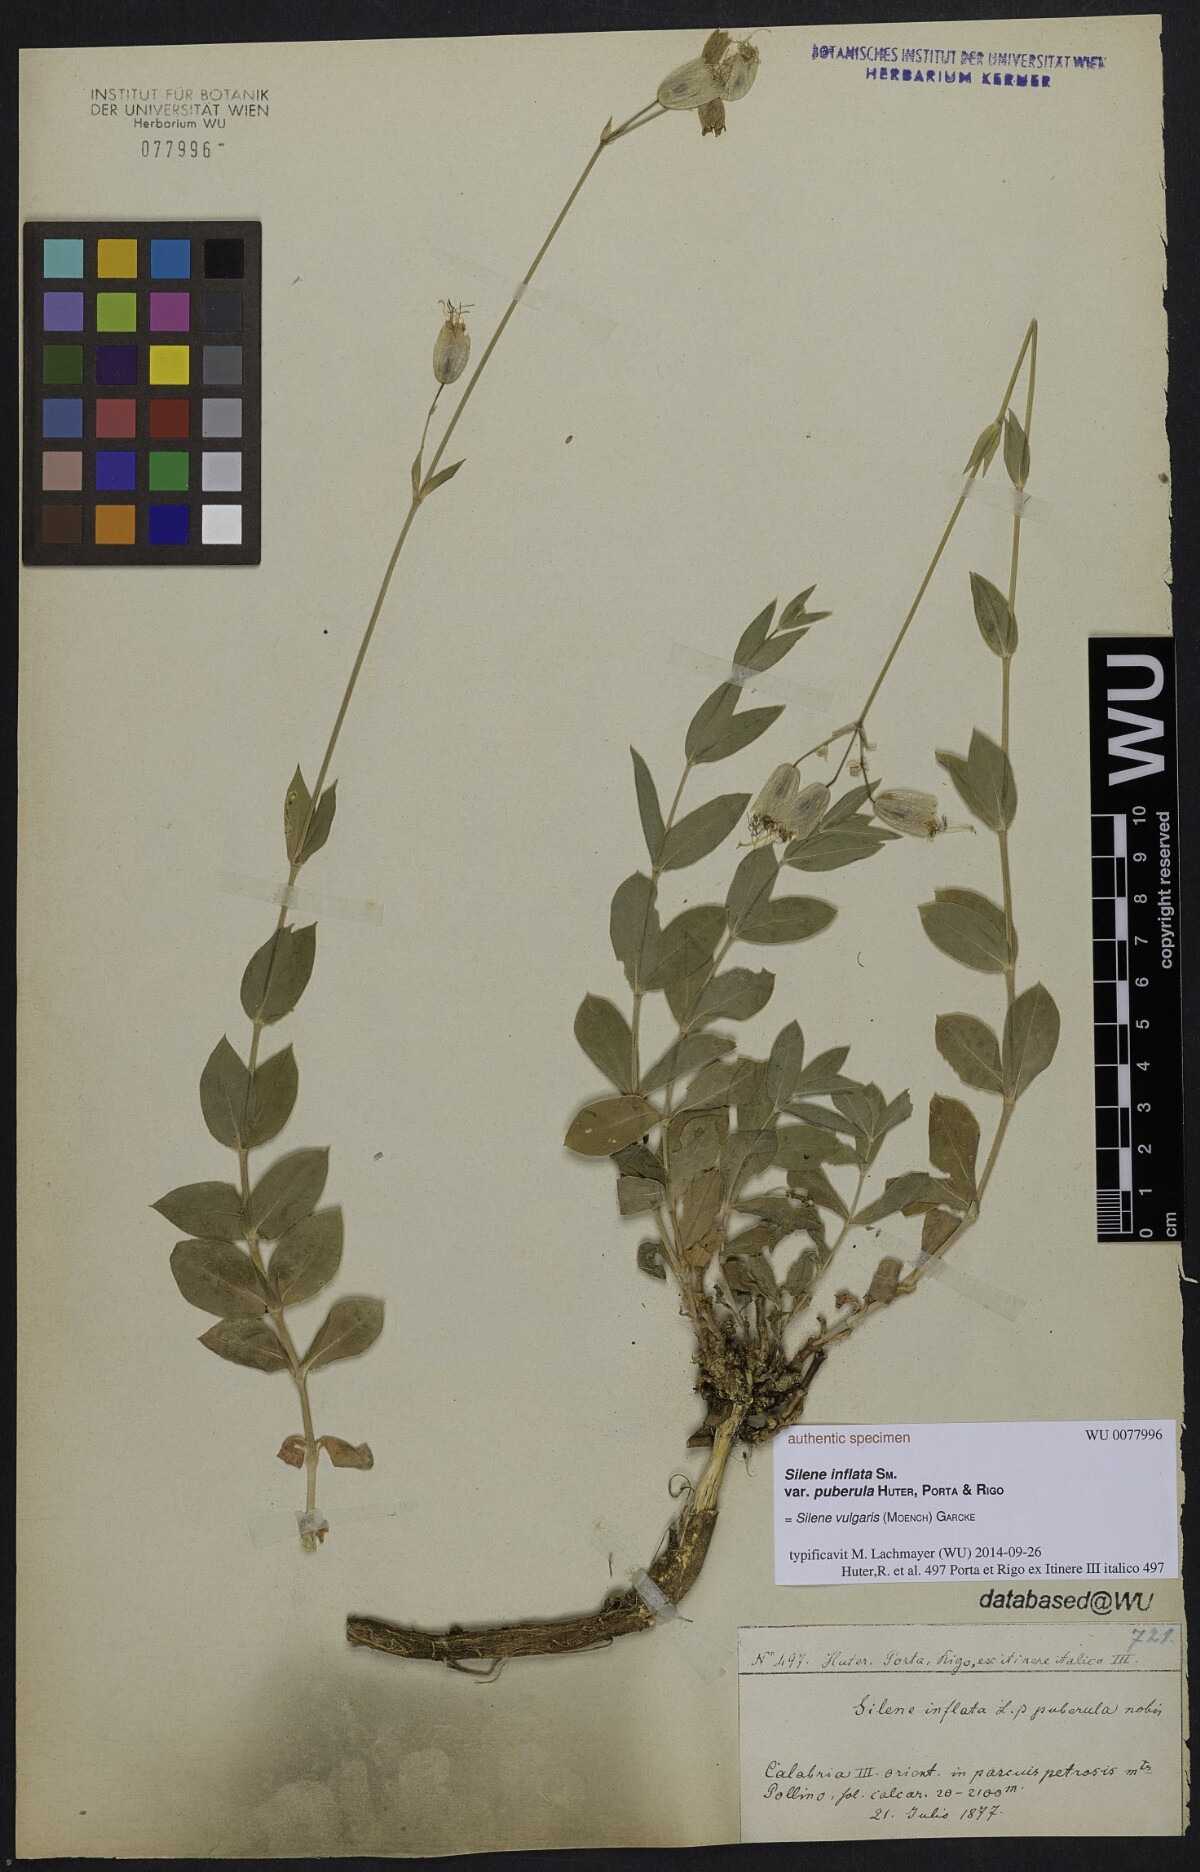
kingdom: Plantae
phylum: Tracheophyta
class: Magnoliopsida
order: Caryophyllales
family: Caryophyllaceae
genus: Silene
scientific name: Silene
